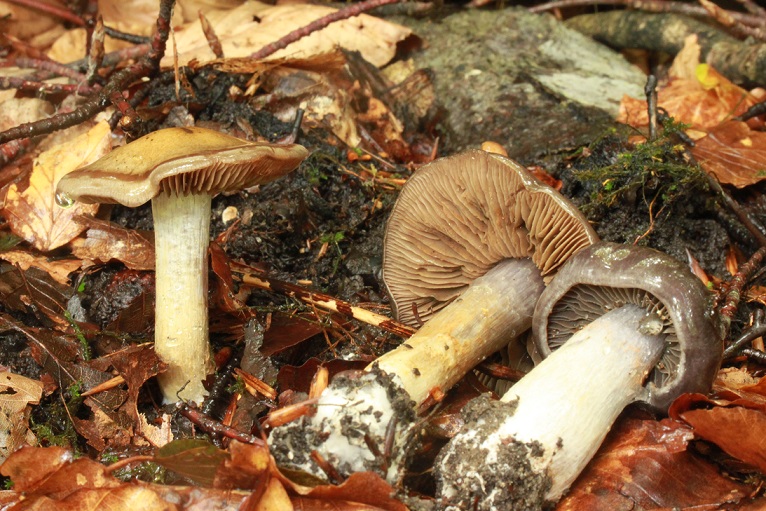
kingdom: Fungi
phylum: Basidiomycota
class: Agaricomycetes
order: Agaricales
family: Cortinariaceae
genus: Cortinarius
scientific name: Cortinarius
